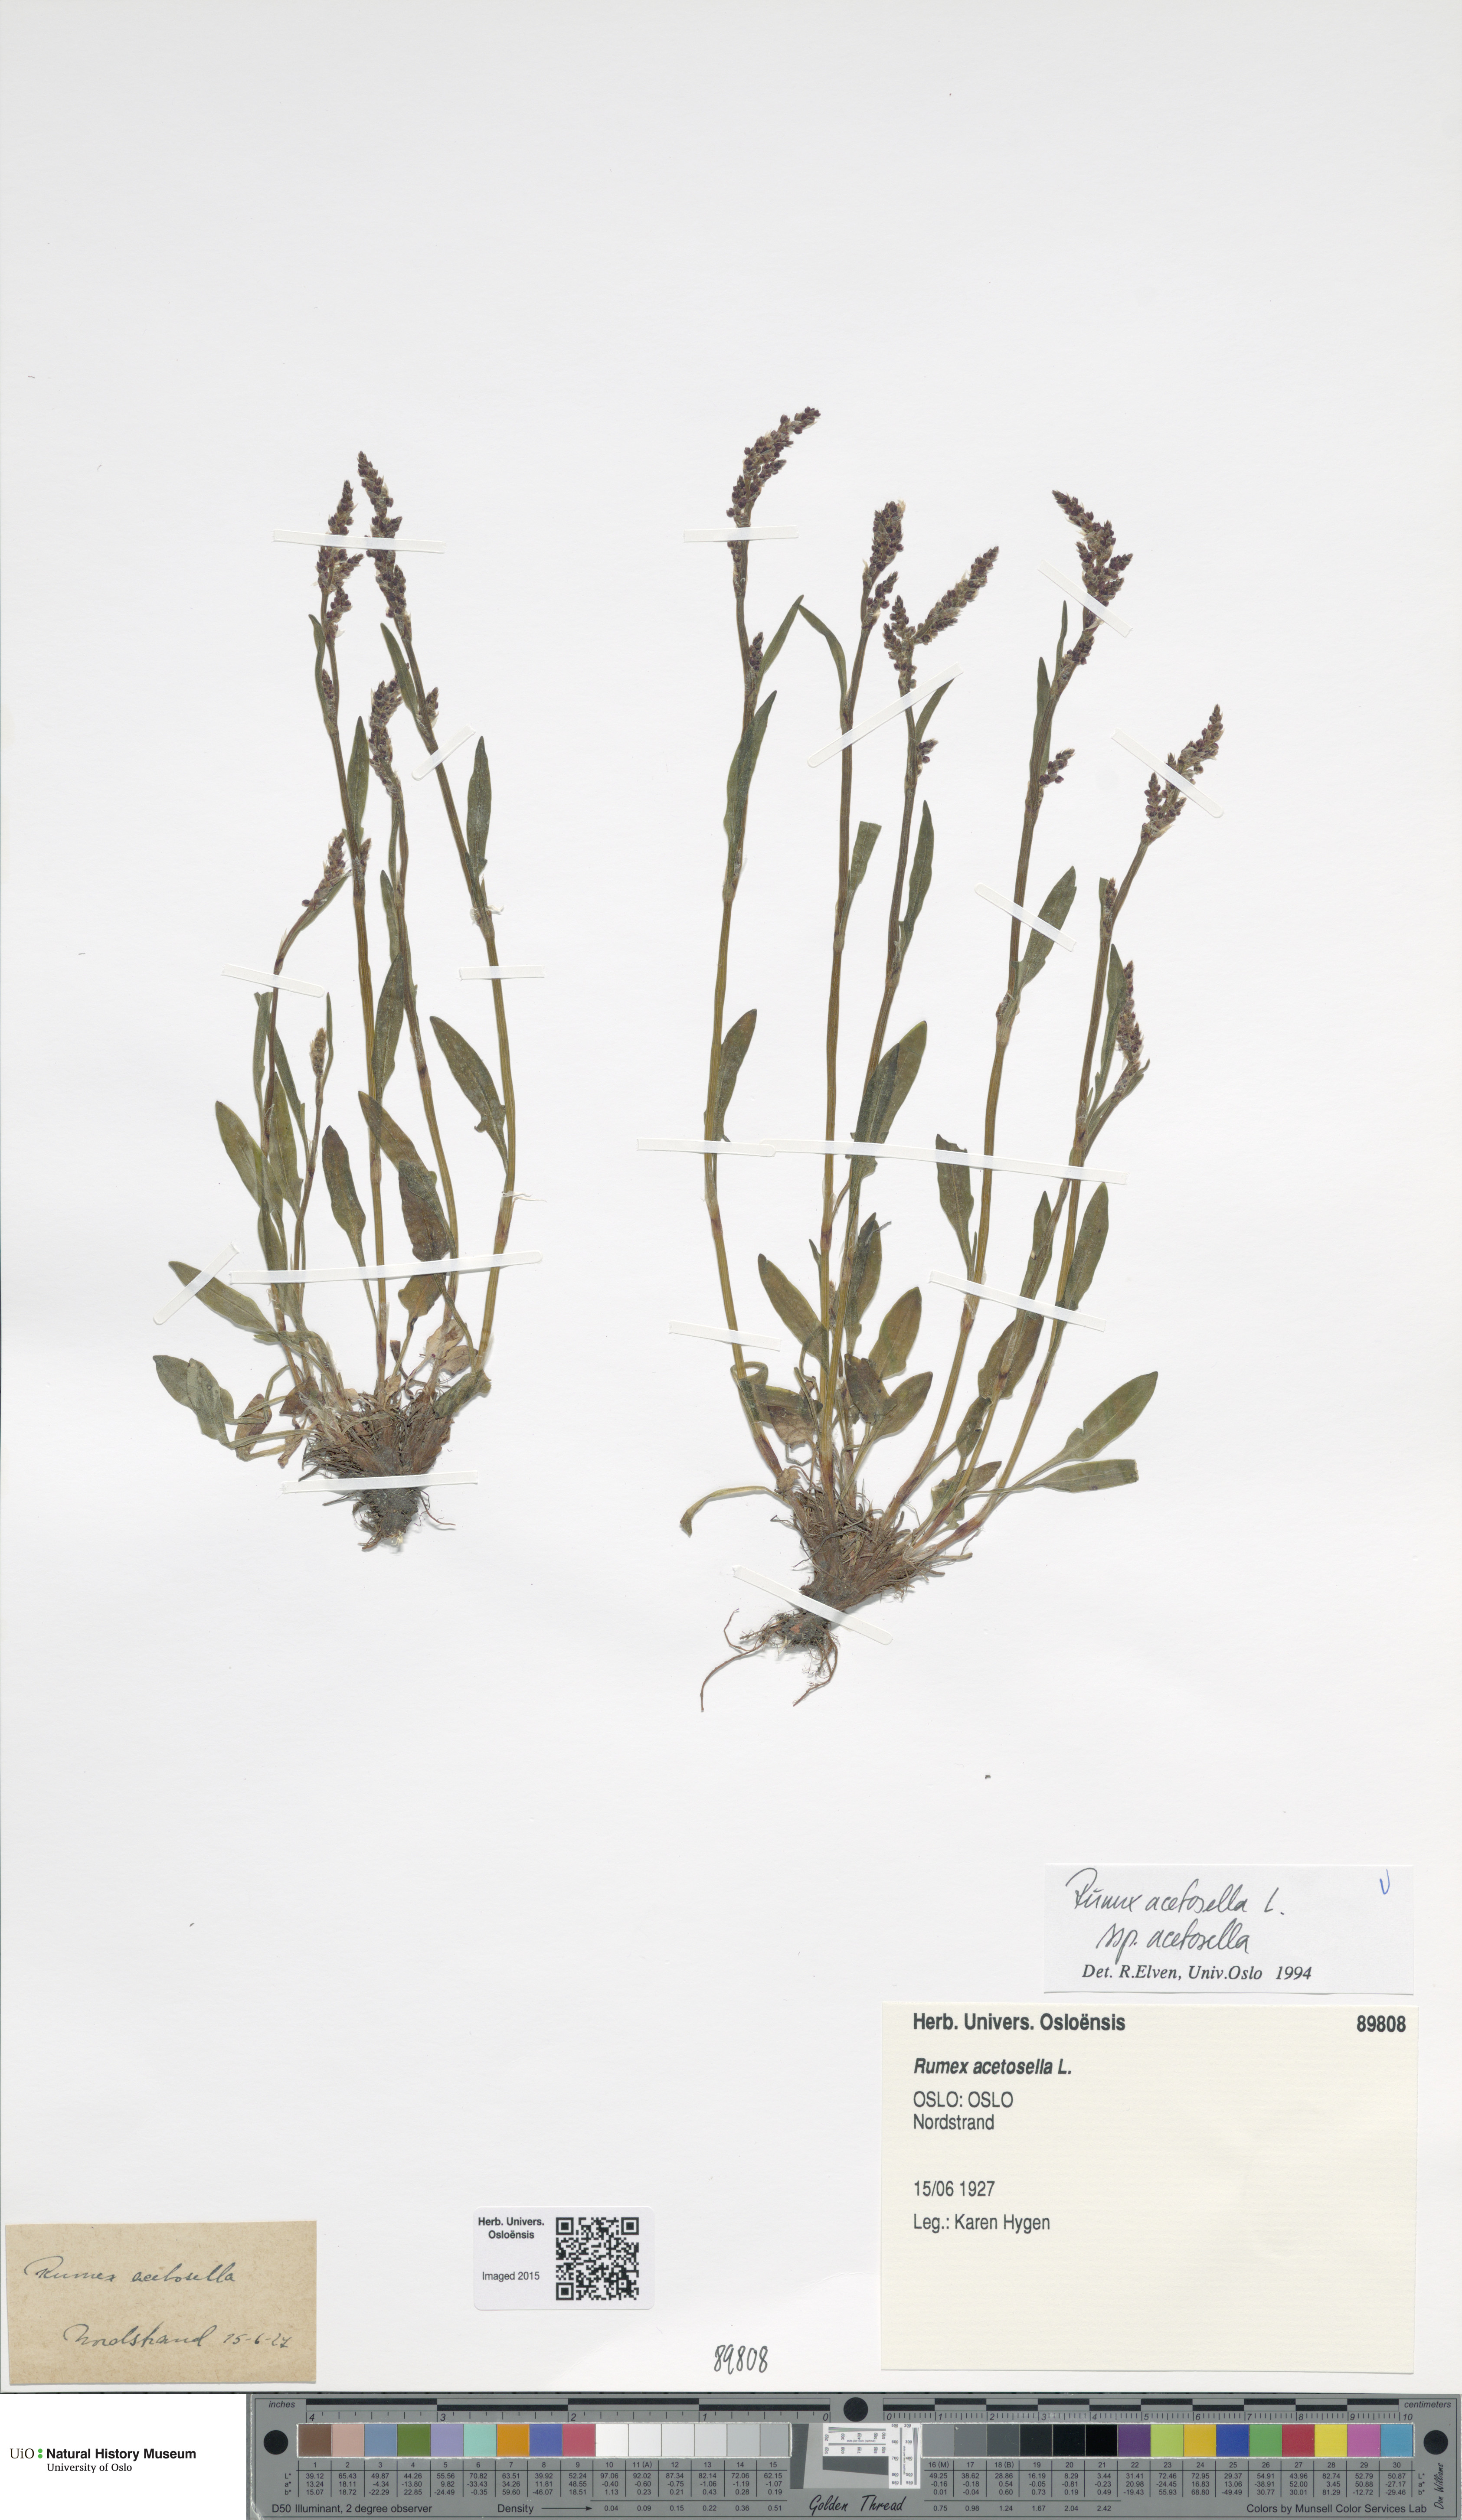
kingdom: Plantae
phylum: Tracheophyta
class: Magnoliopsida
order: Caryophyllales
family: Polygonaceae
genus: Rumex
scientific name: Rumex acetosella
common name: Common sheep sorrel
